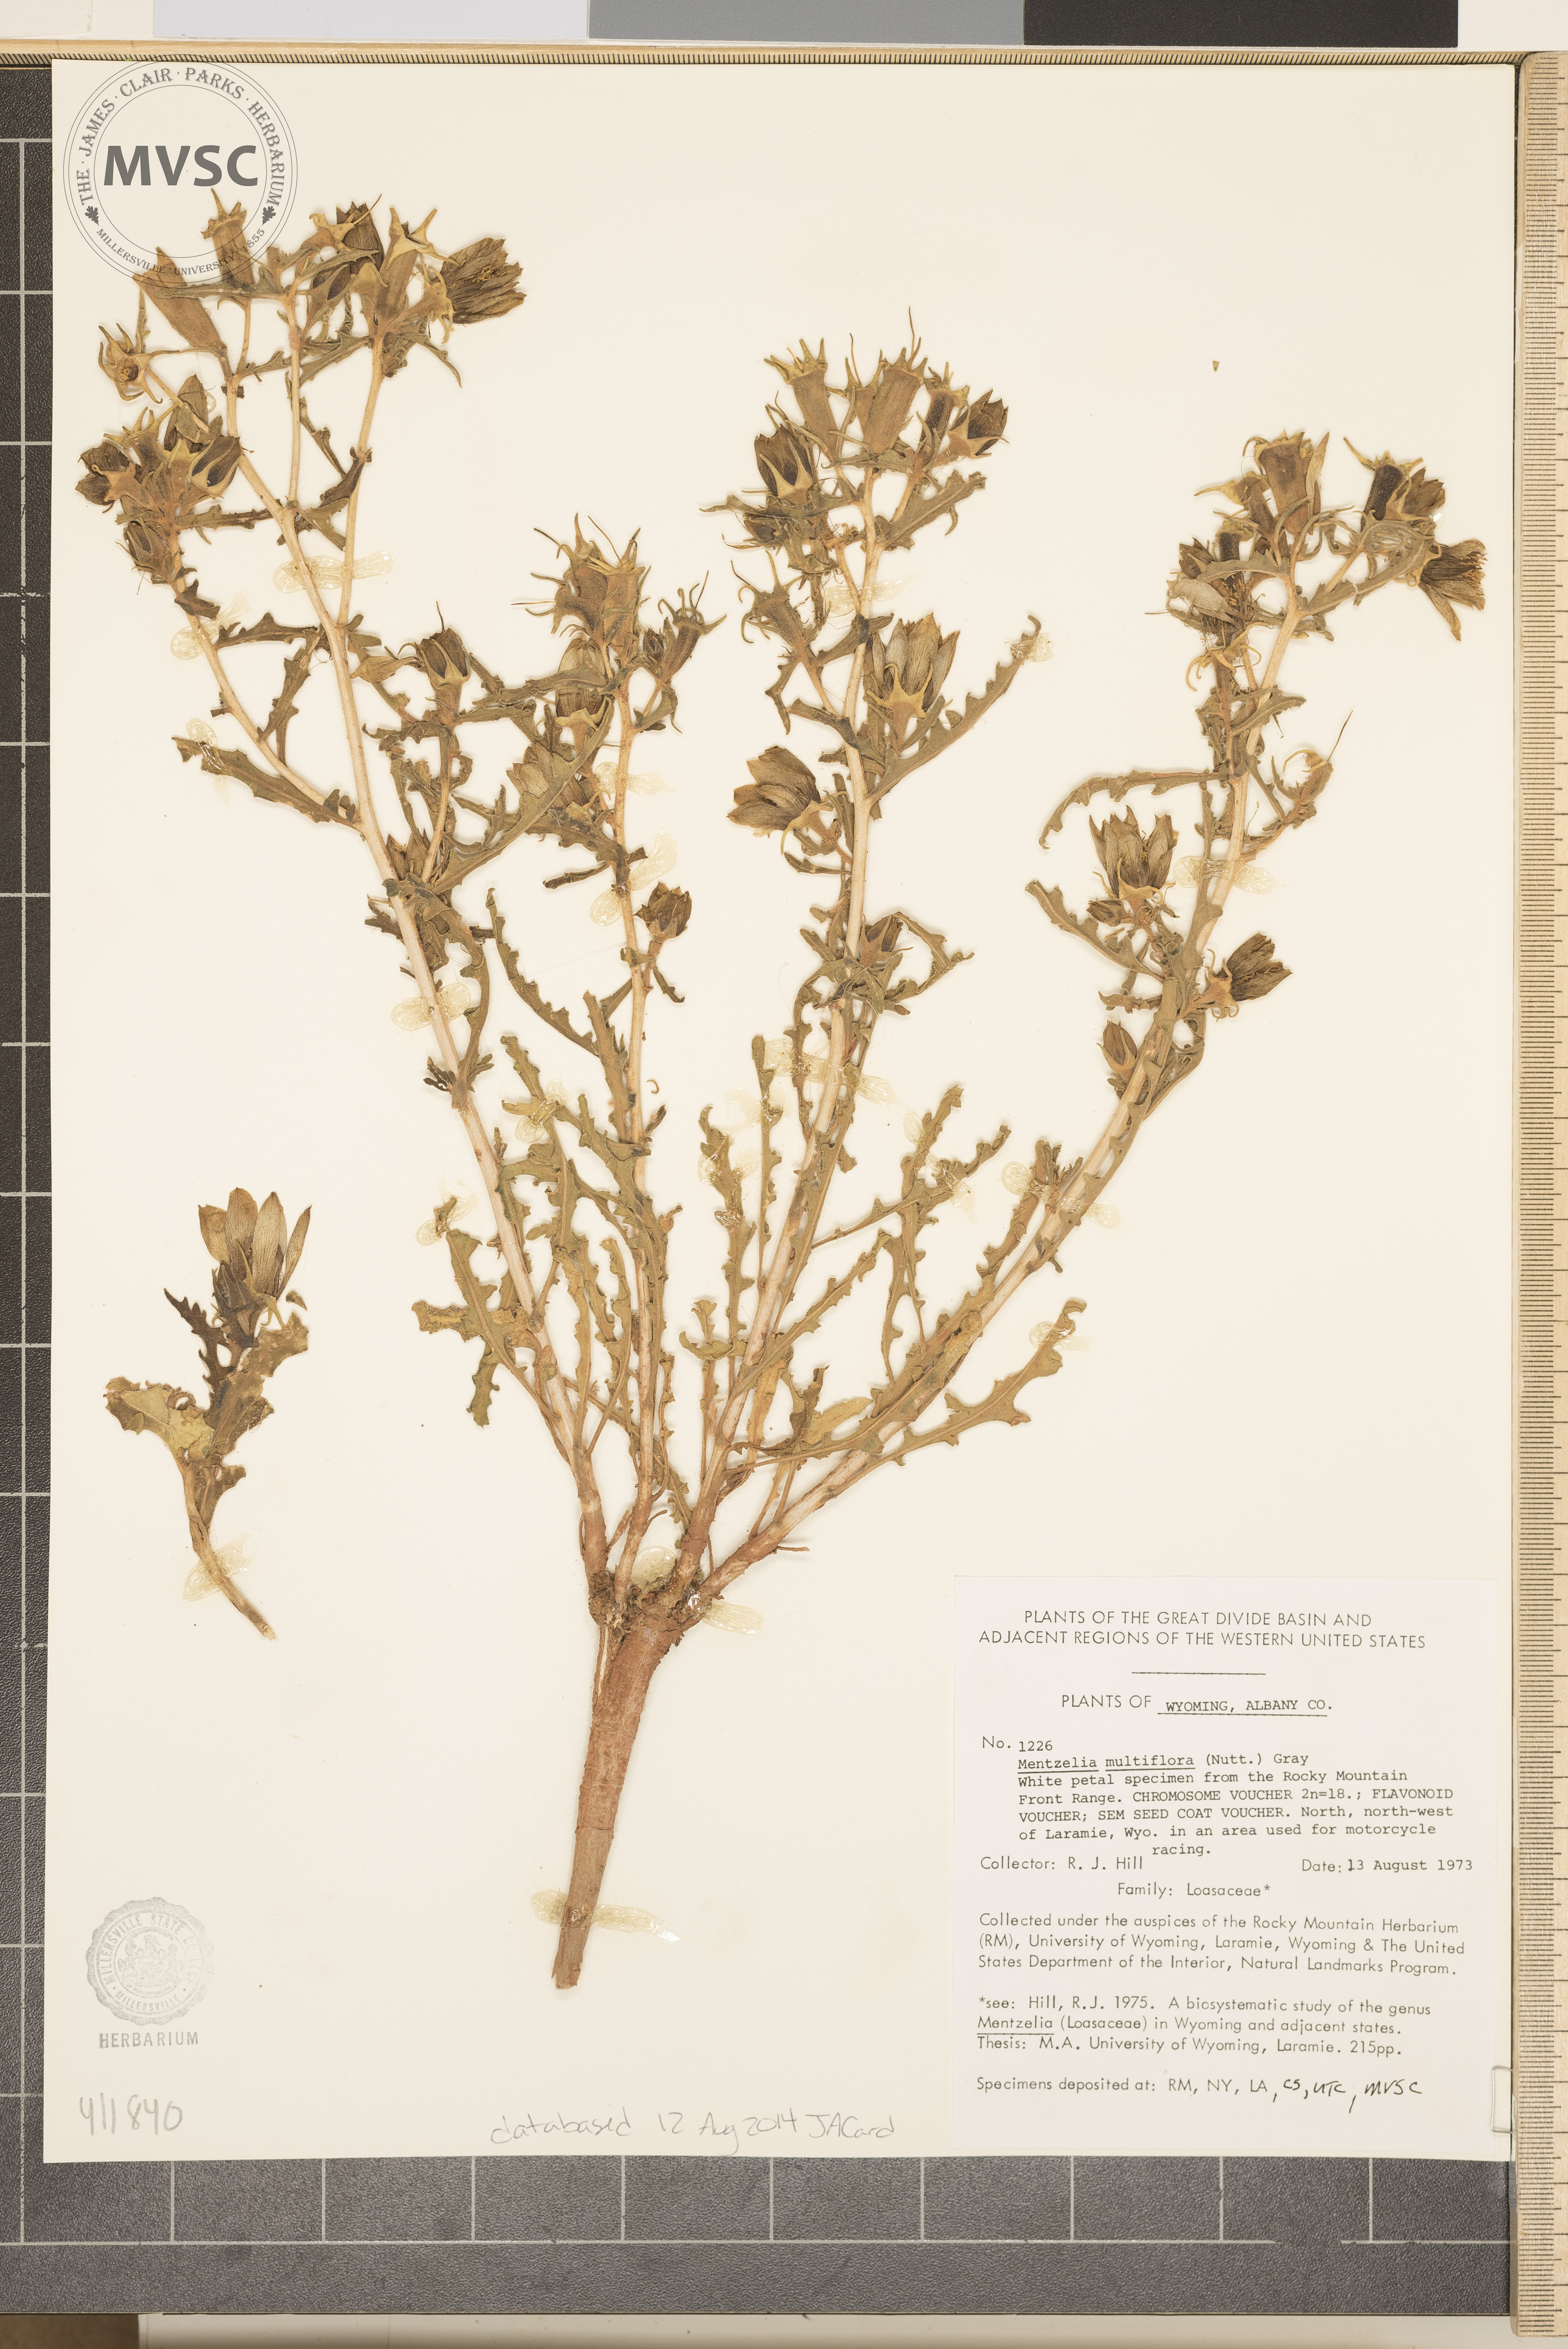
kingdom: Plantae
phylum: Tracheophyta
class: Magnoliopsida
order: Cornales
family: Loasaceae
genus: Mentzelia
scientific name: Mentzelia multiflora
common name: Adonis blazingstar
